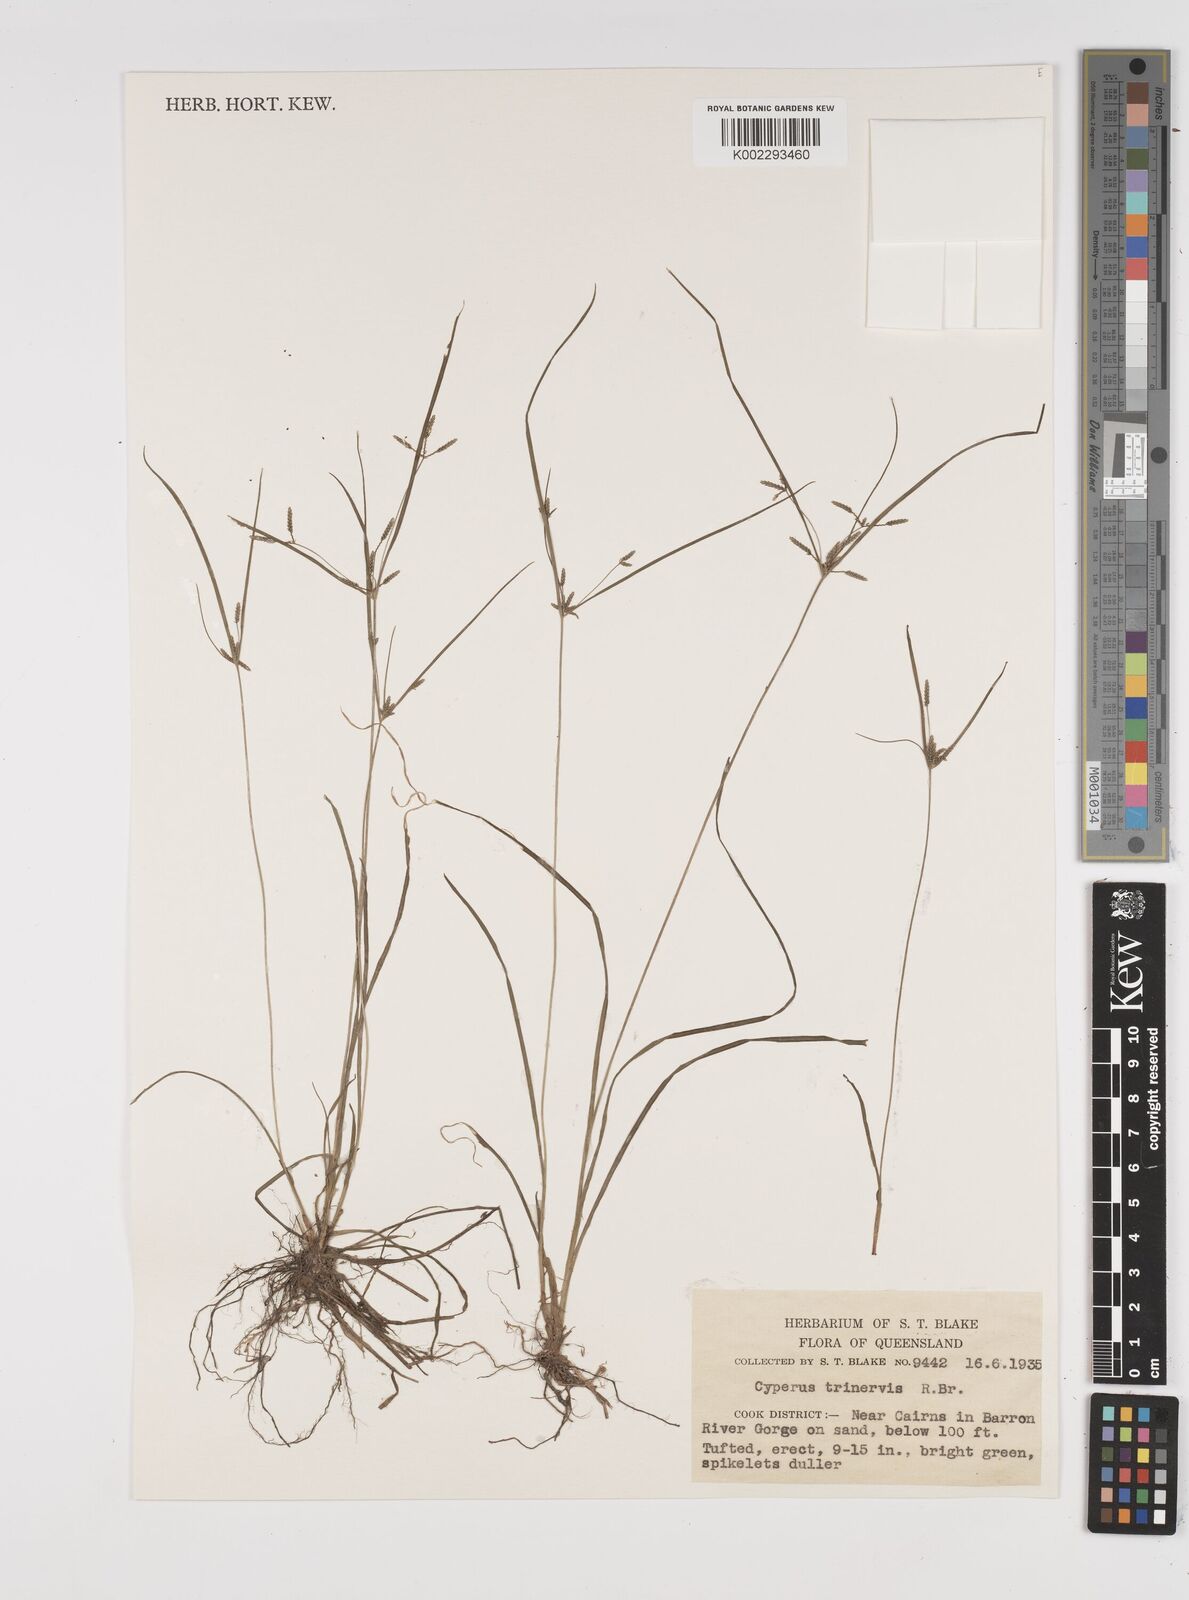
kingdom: Plantae
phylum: Tracheophyta
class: Liliopsida
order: Poales
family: Cyperaceae
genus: Cyperus
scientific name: Cyperus trinervis
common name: Australian flatsedge
